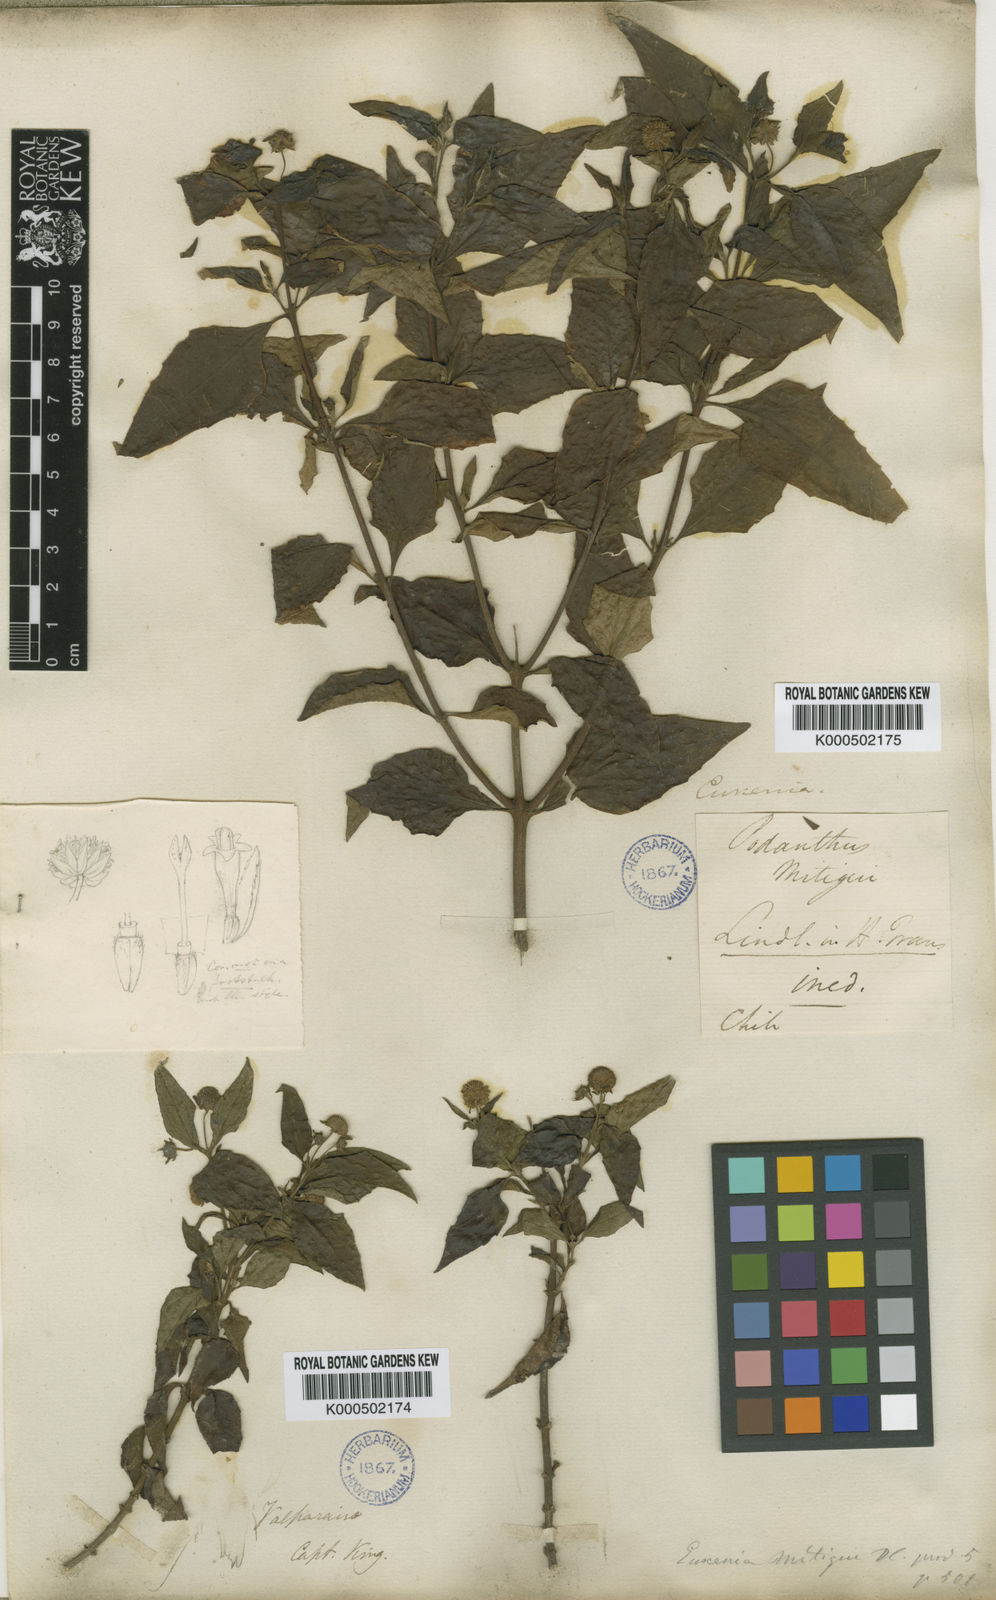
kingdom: Plantae
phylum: Tracheophyta
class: Magnoliopsida
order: Asterales
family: Asteraceae
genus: Podanthus
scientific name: Podanthus mitiqui
